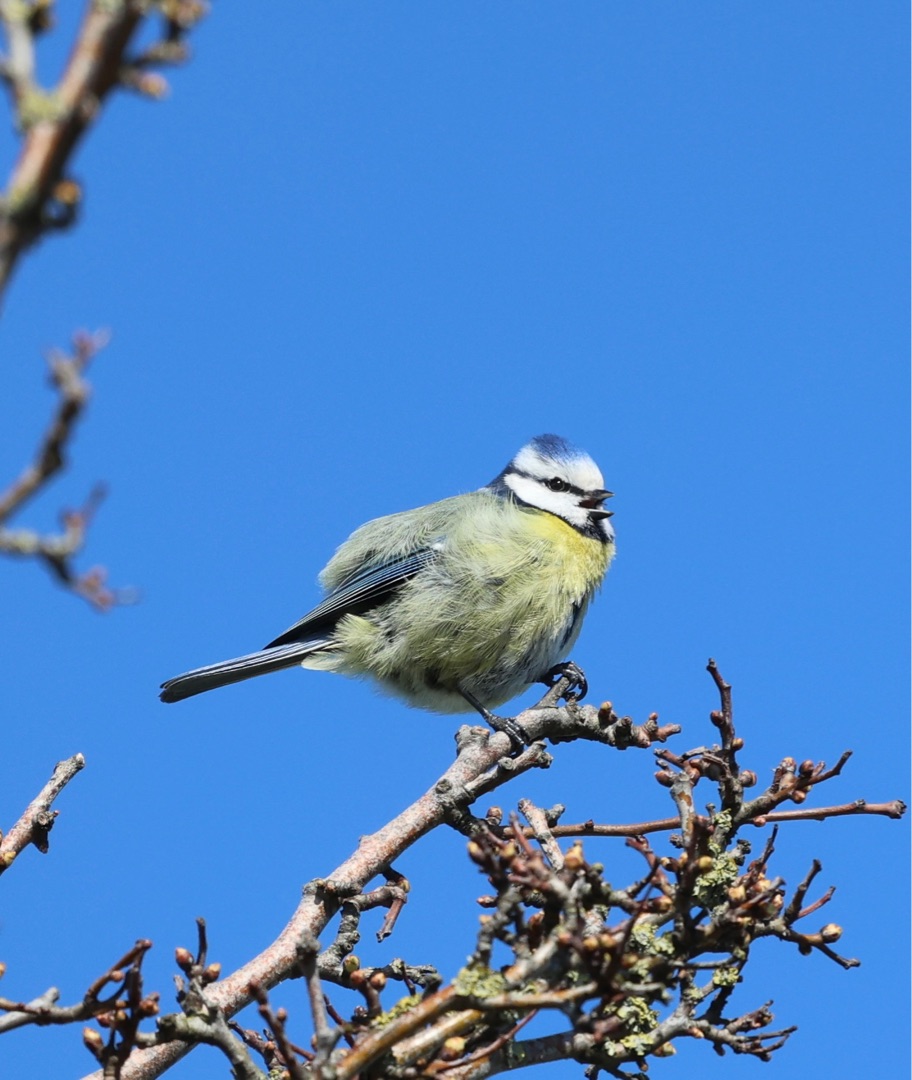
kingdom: Animalia
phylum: Chordata
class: Aves
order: Passeriformes
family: Paridae
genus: Cyanistes
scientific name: Cyanistes caeruleus
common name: Blåmejse
